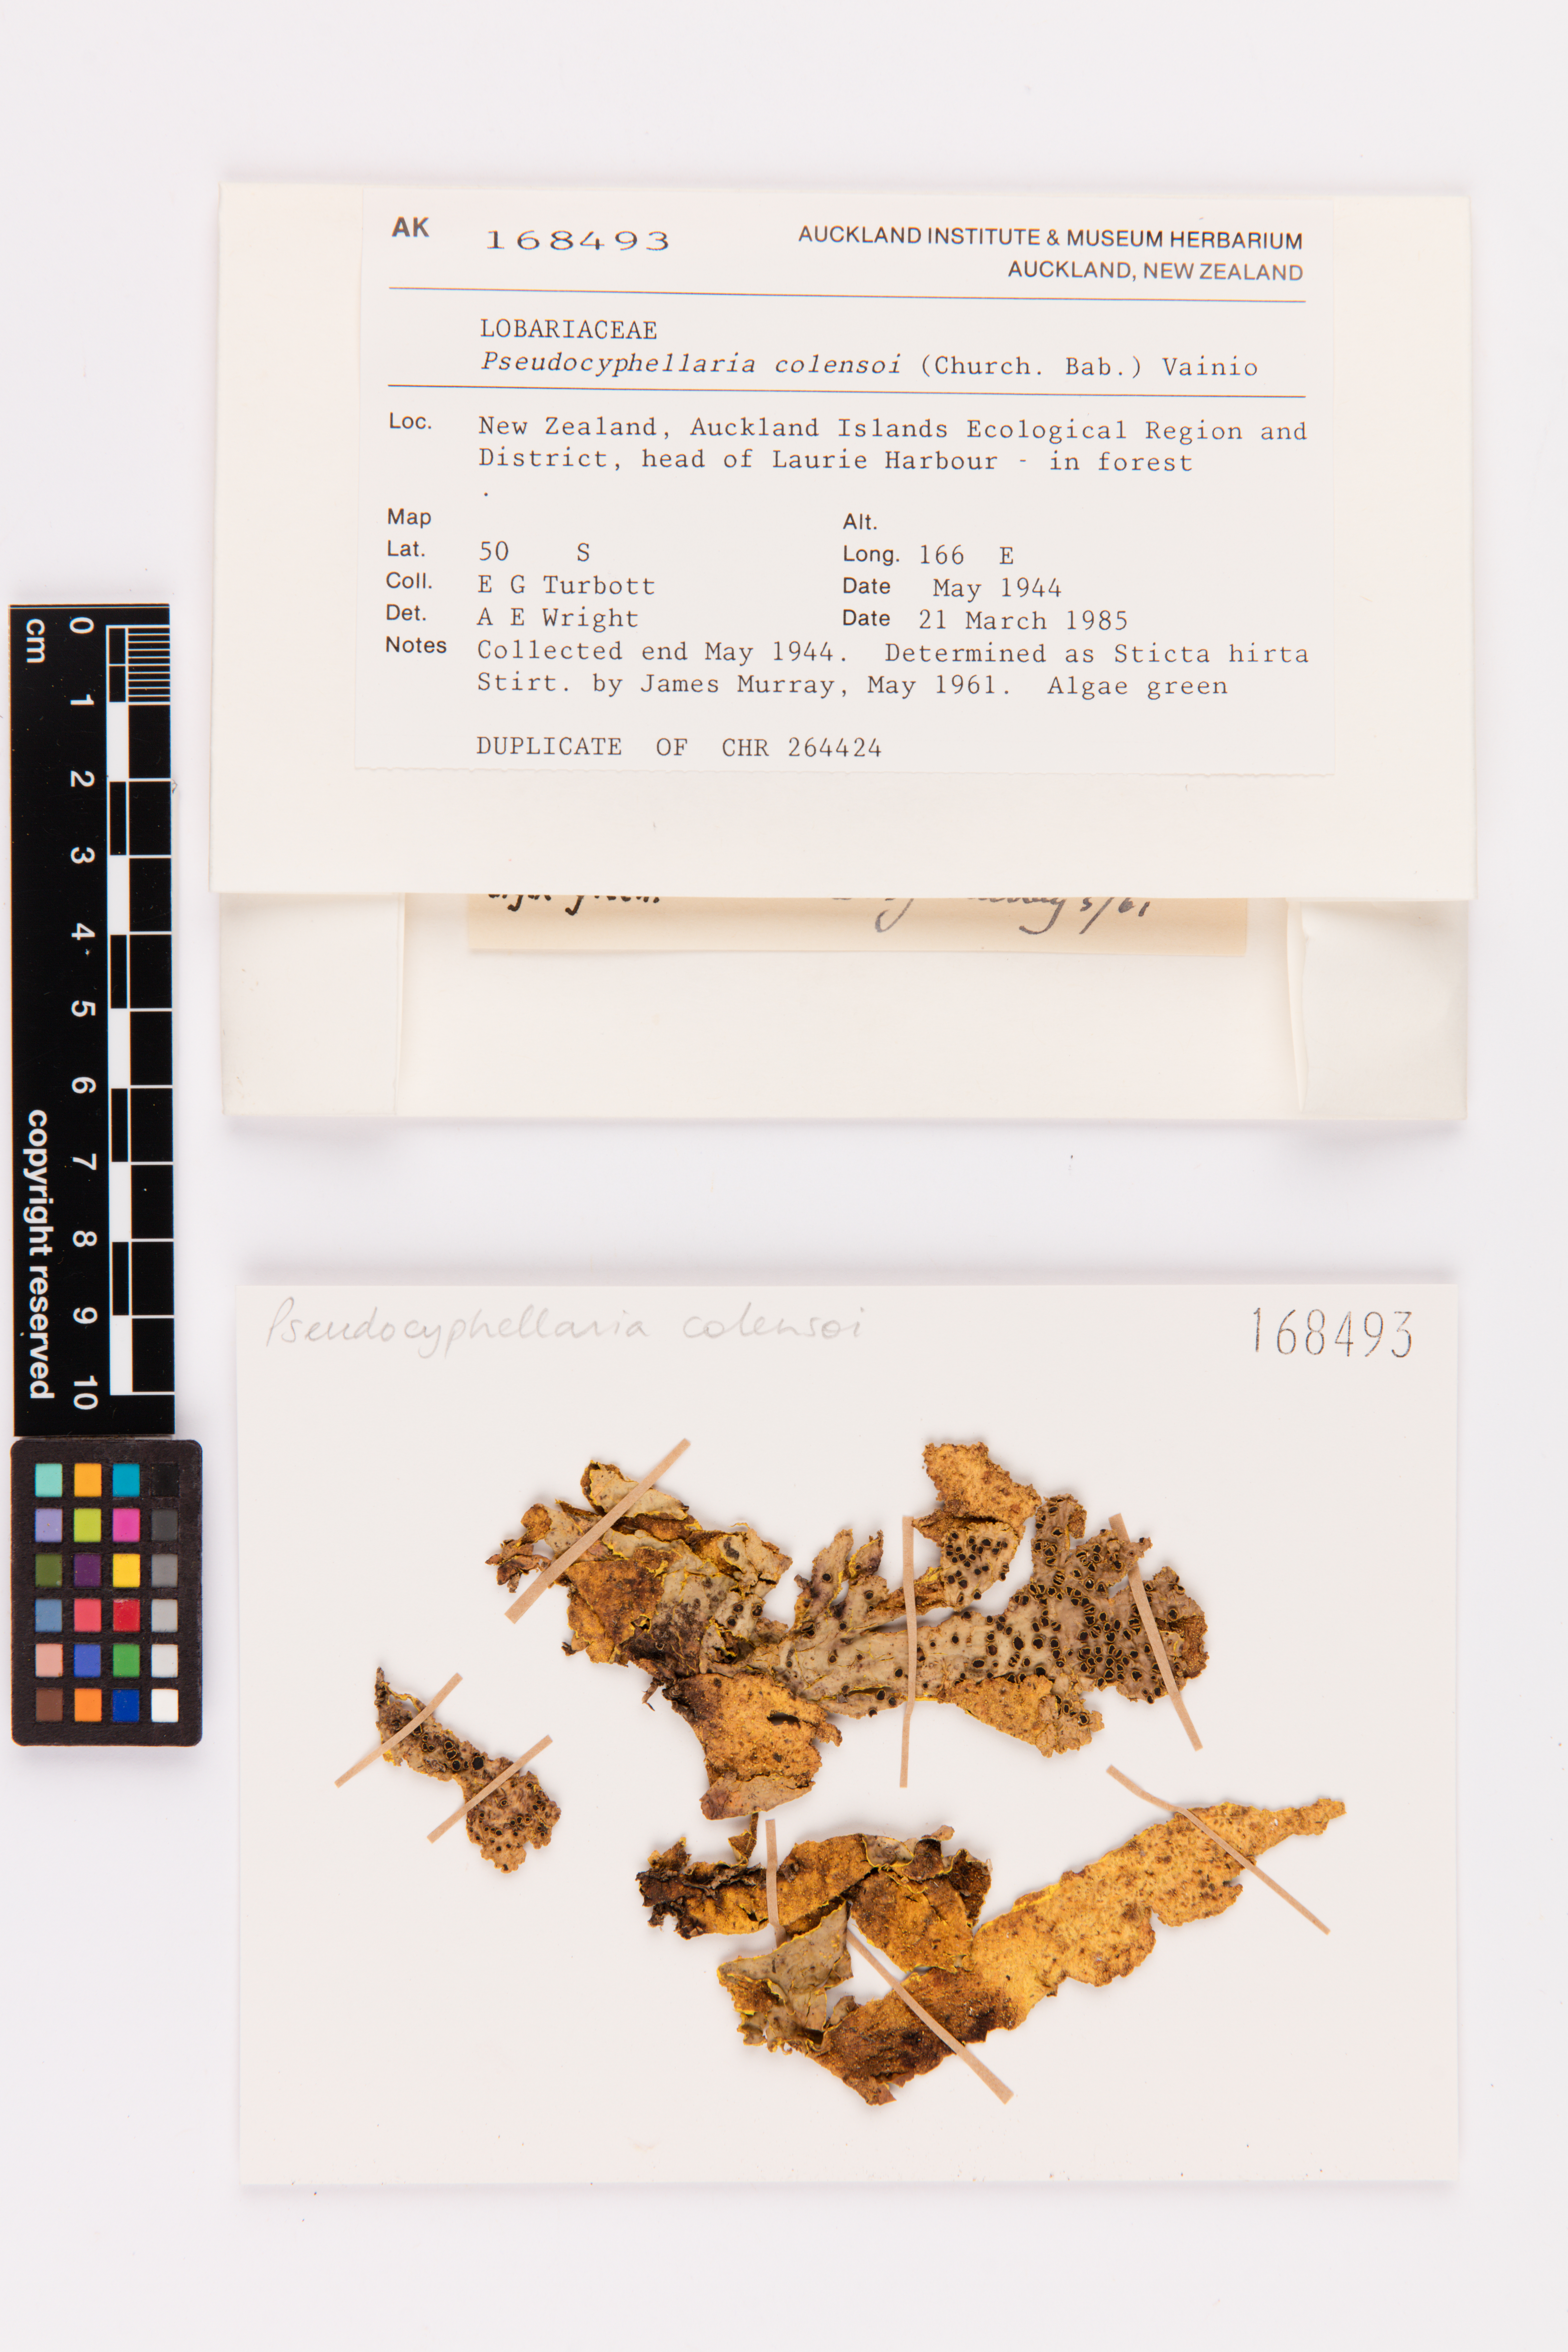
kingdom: Fungi
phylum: Ascomycota
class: Lecanoromycetes
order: Peltigerales
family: Lobariaceae
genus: Yarrumia
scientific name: Yarrumia colensoi
